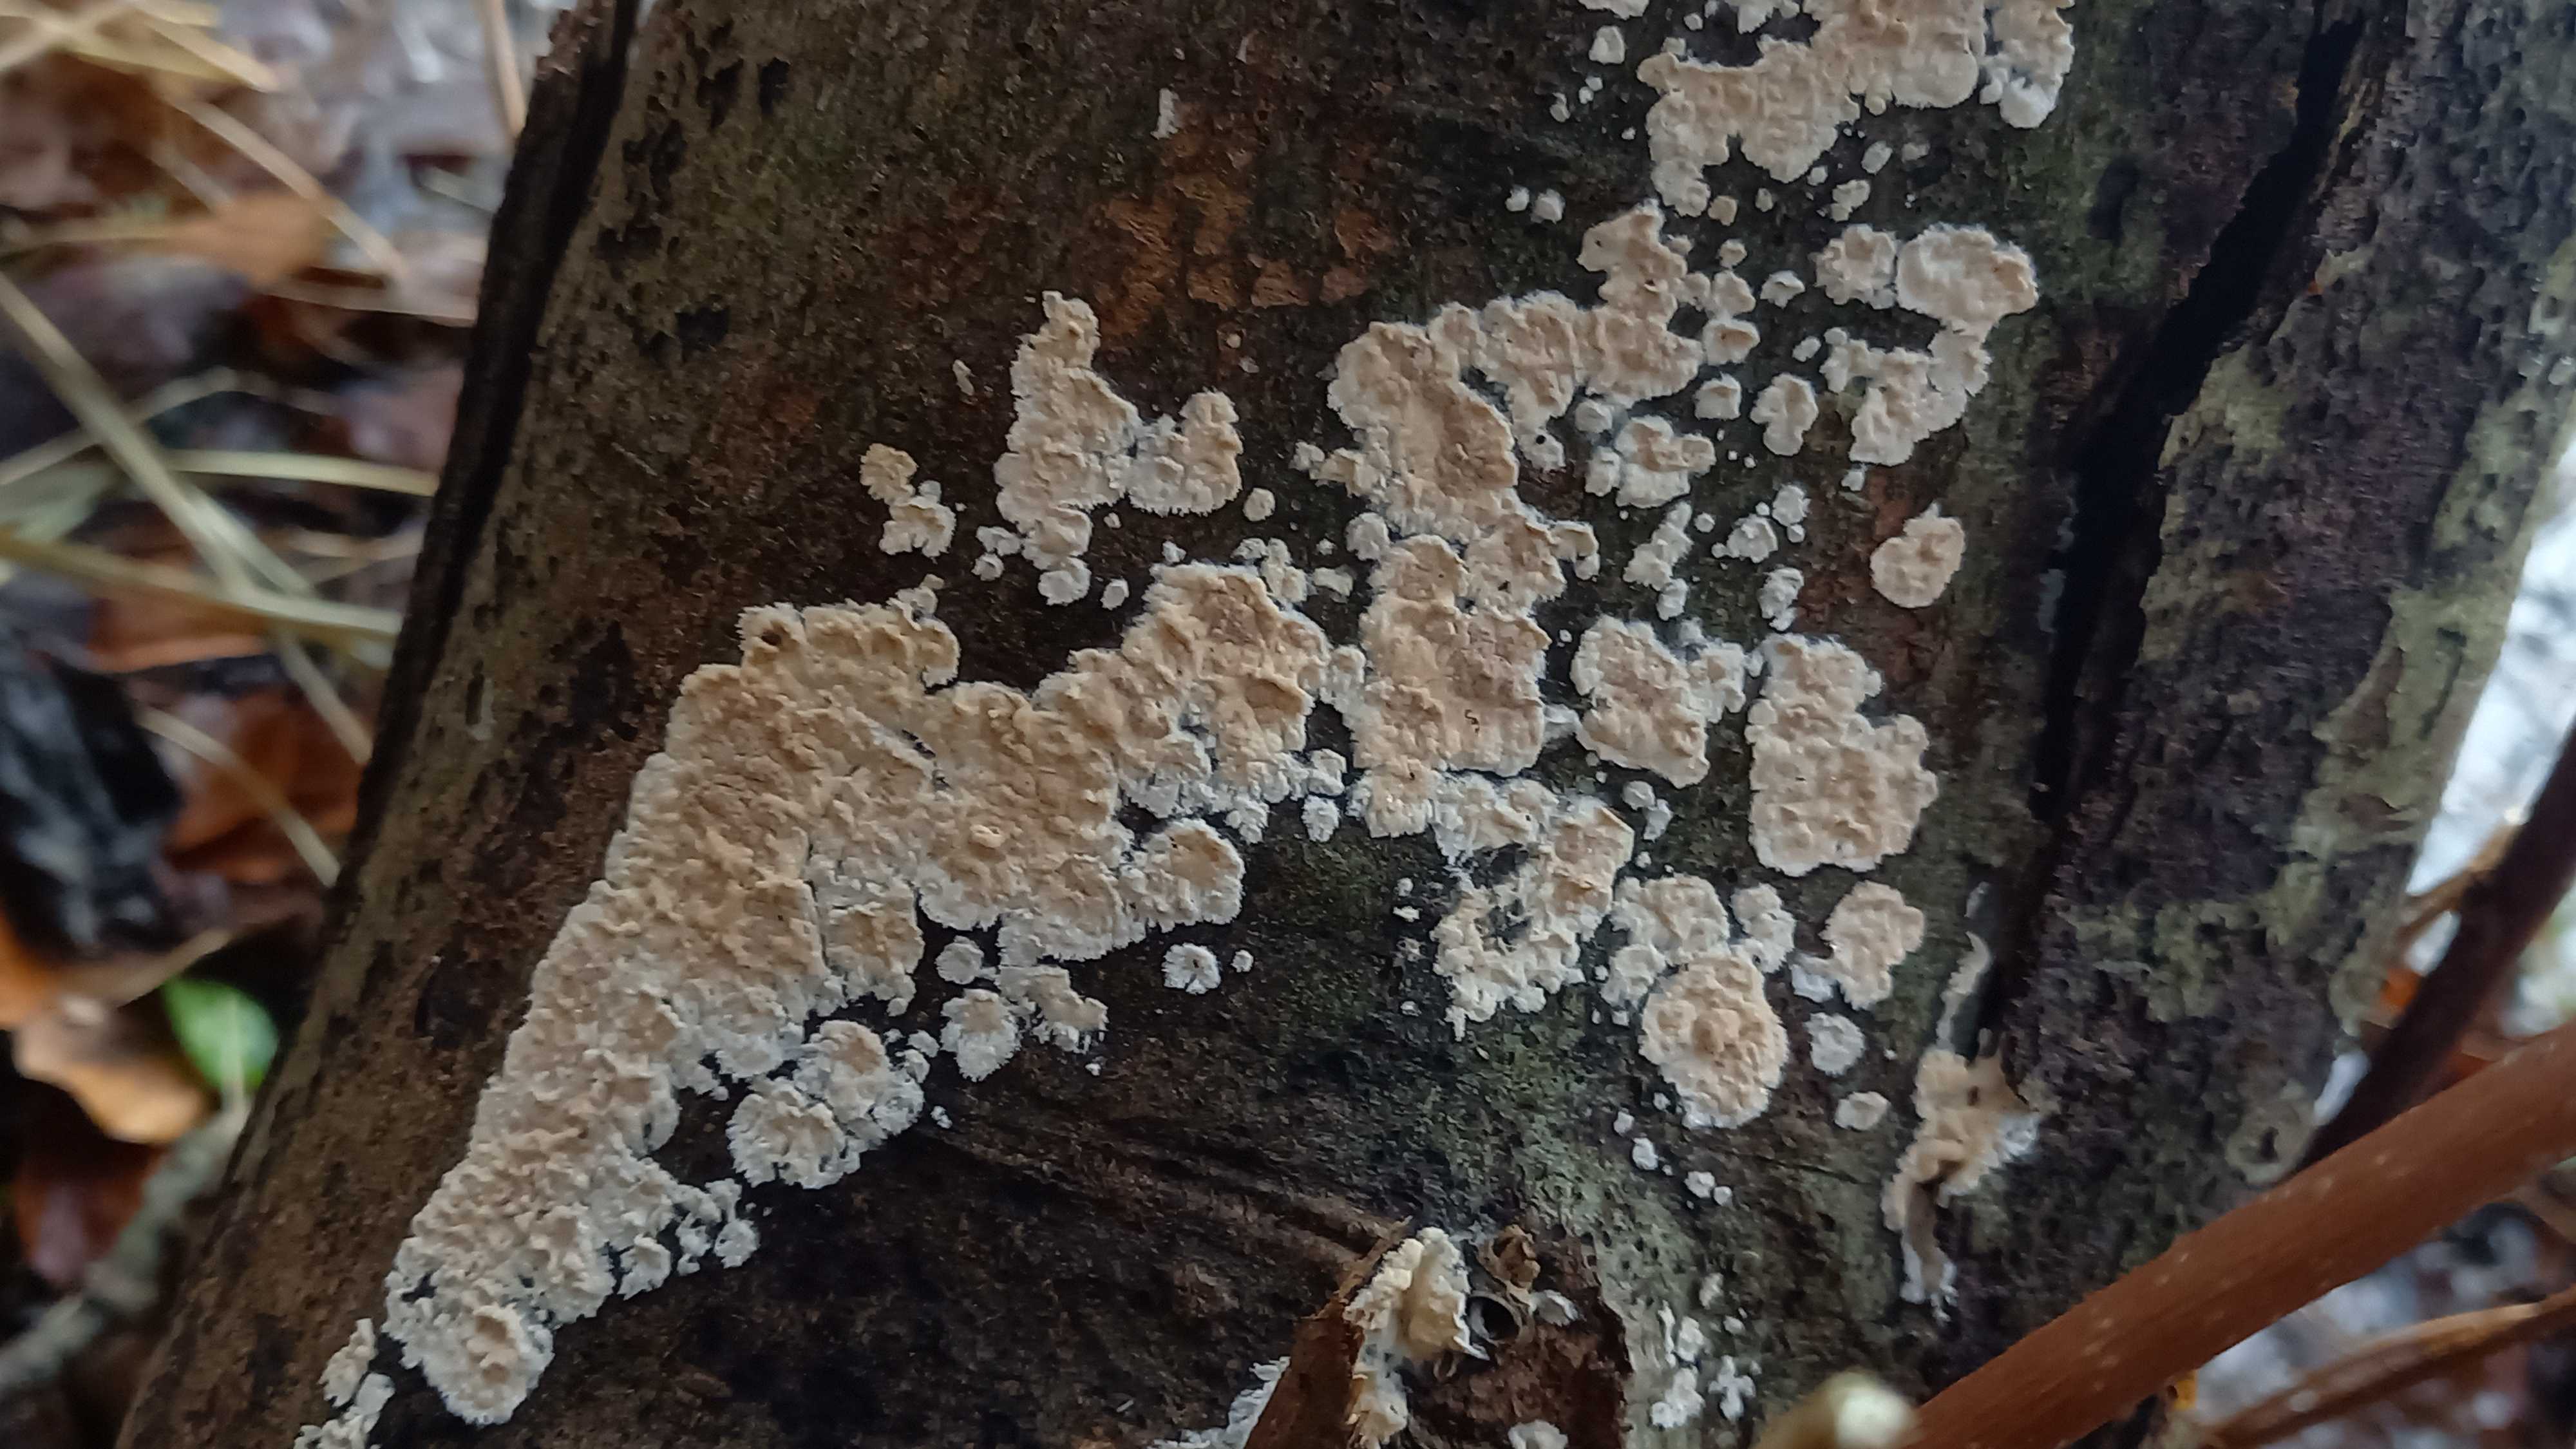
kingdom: Fungi
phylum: Basidiomycota
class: Agaricomycetes
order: Agaricales
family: Physalacriaceae
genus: Cylindrobasidium
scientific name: Cylindrobasidium evolvens
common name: sprækkehinde
